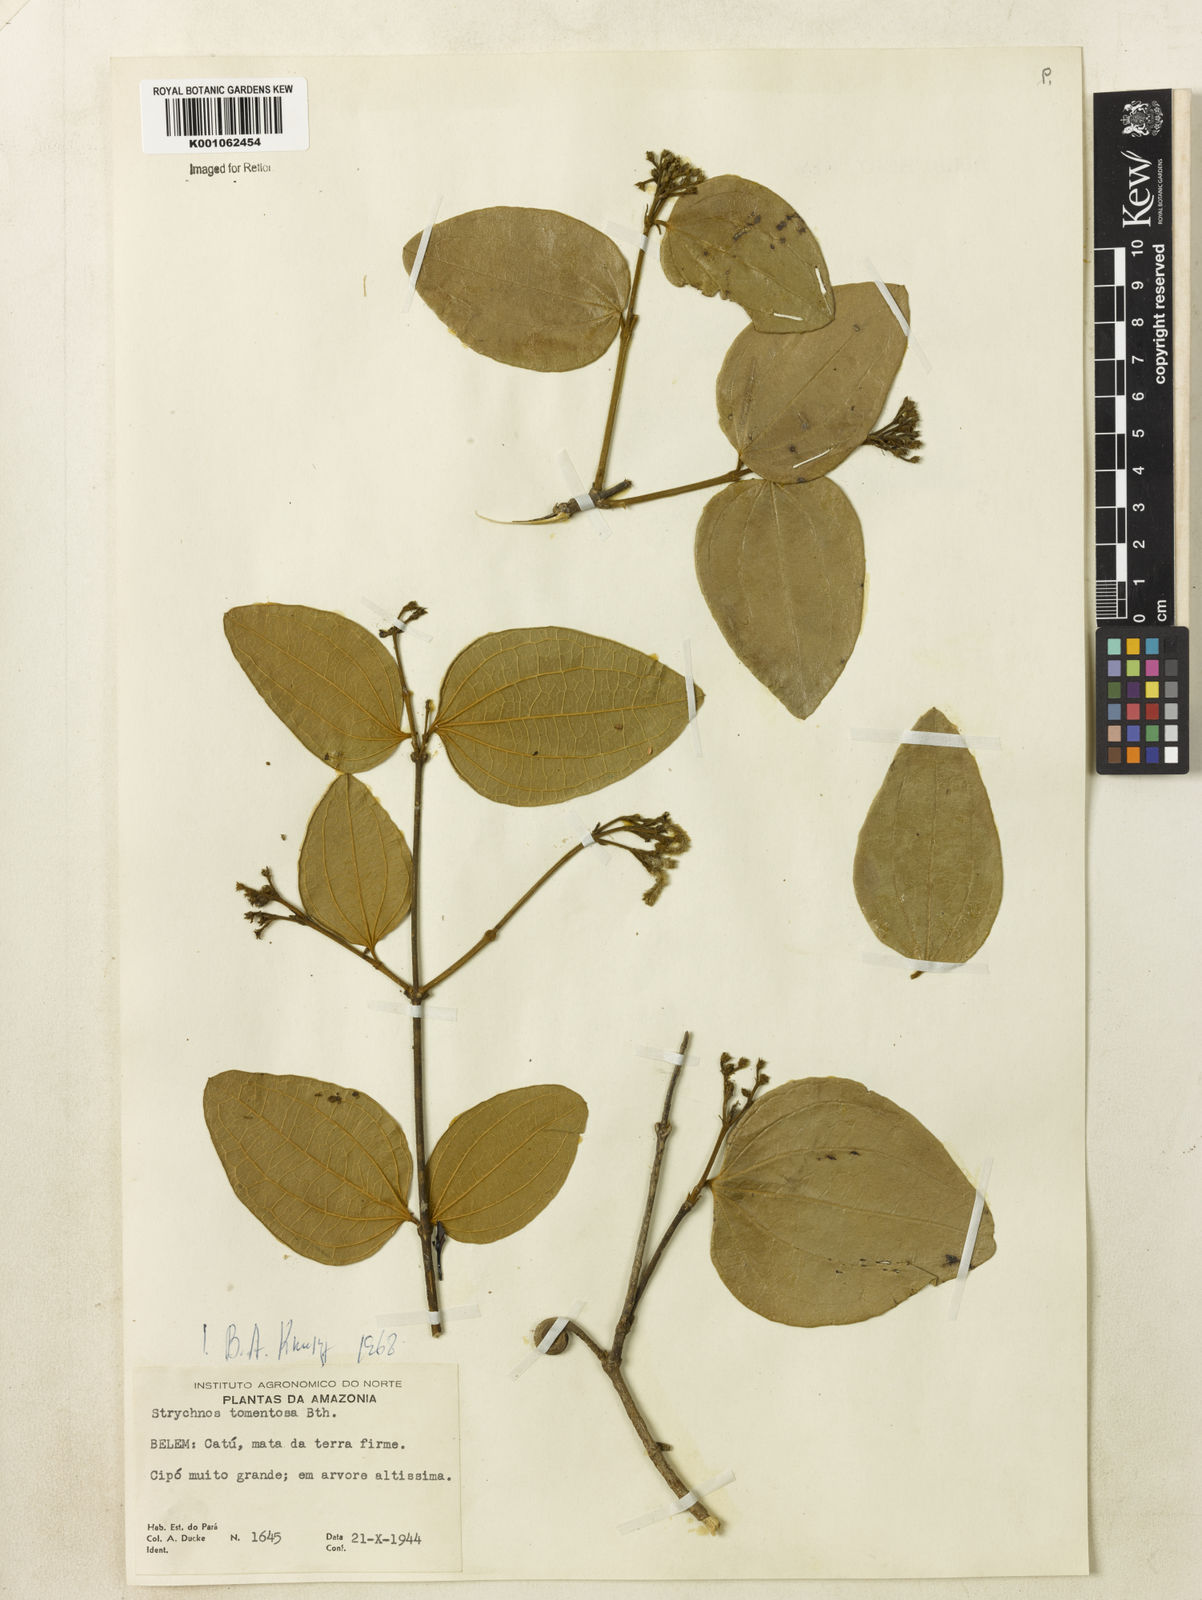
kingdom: Plantae
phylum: Tracheophyta
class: Magnoliopsida
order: Gentianales
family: Loganiaceae
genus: Strychnos
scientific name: Strychnos tomentosa
